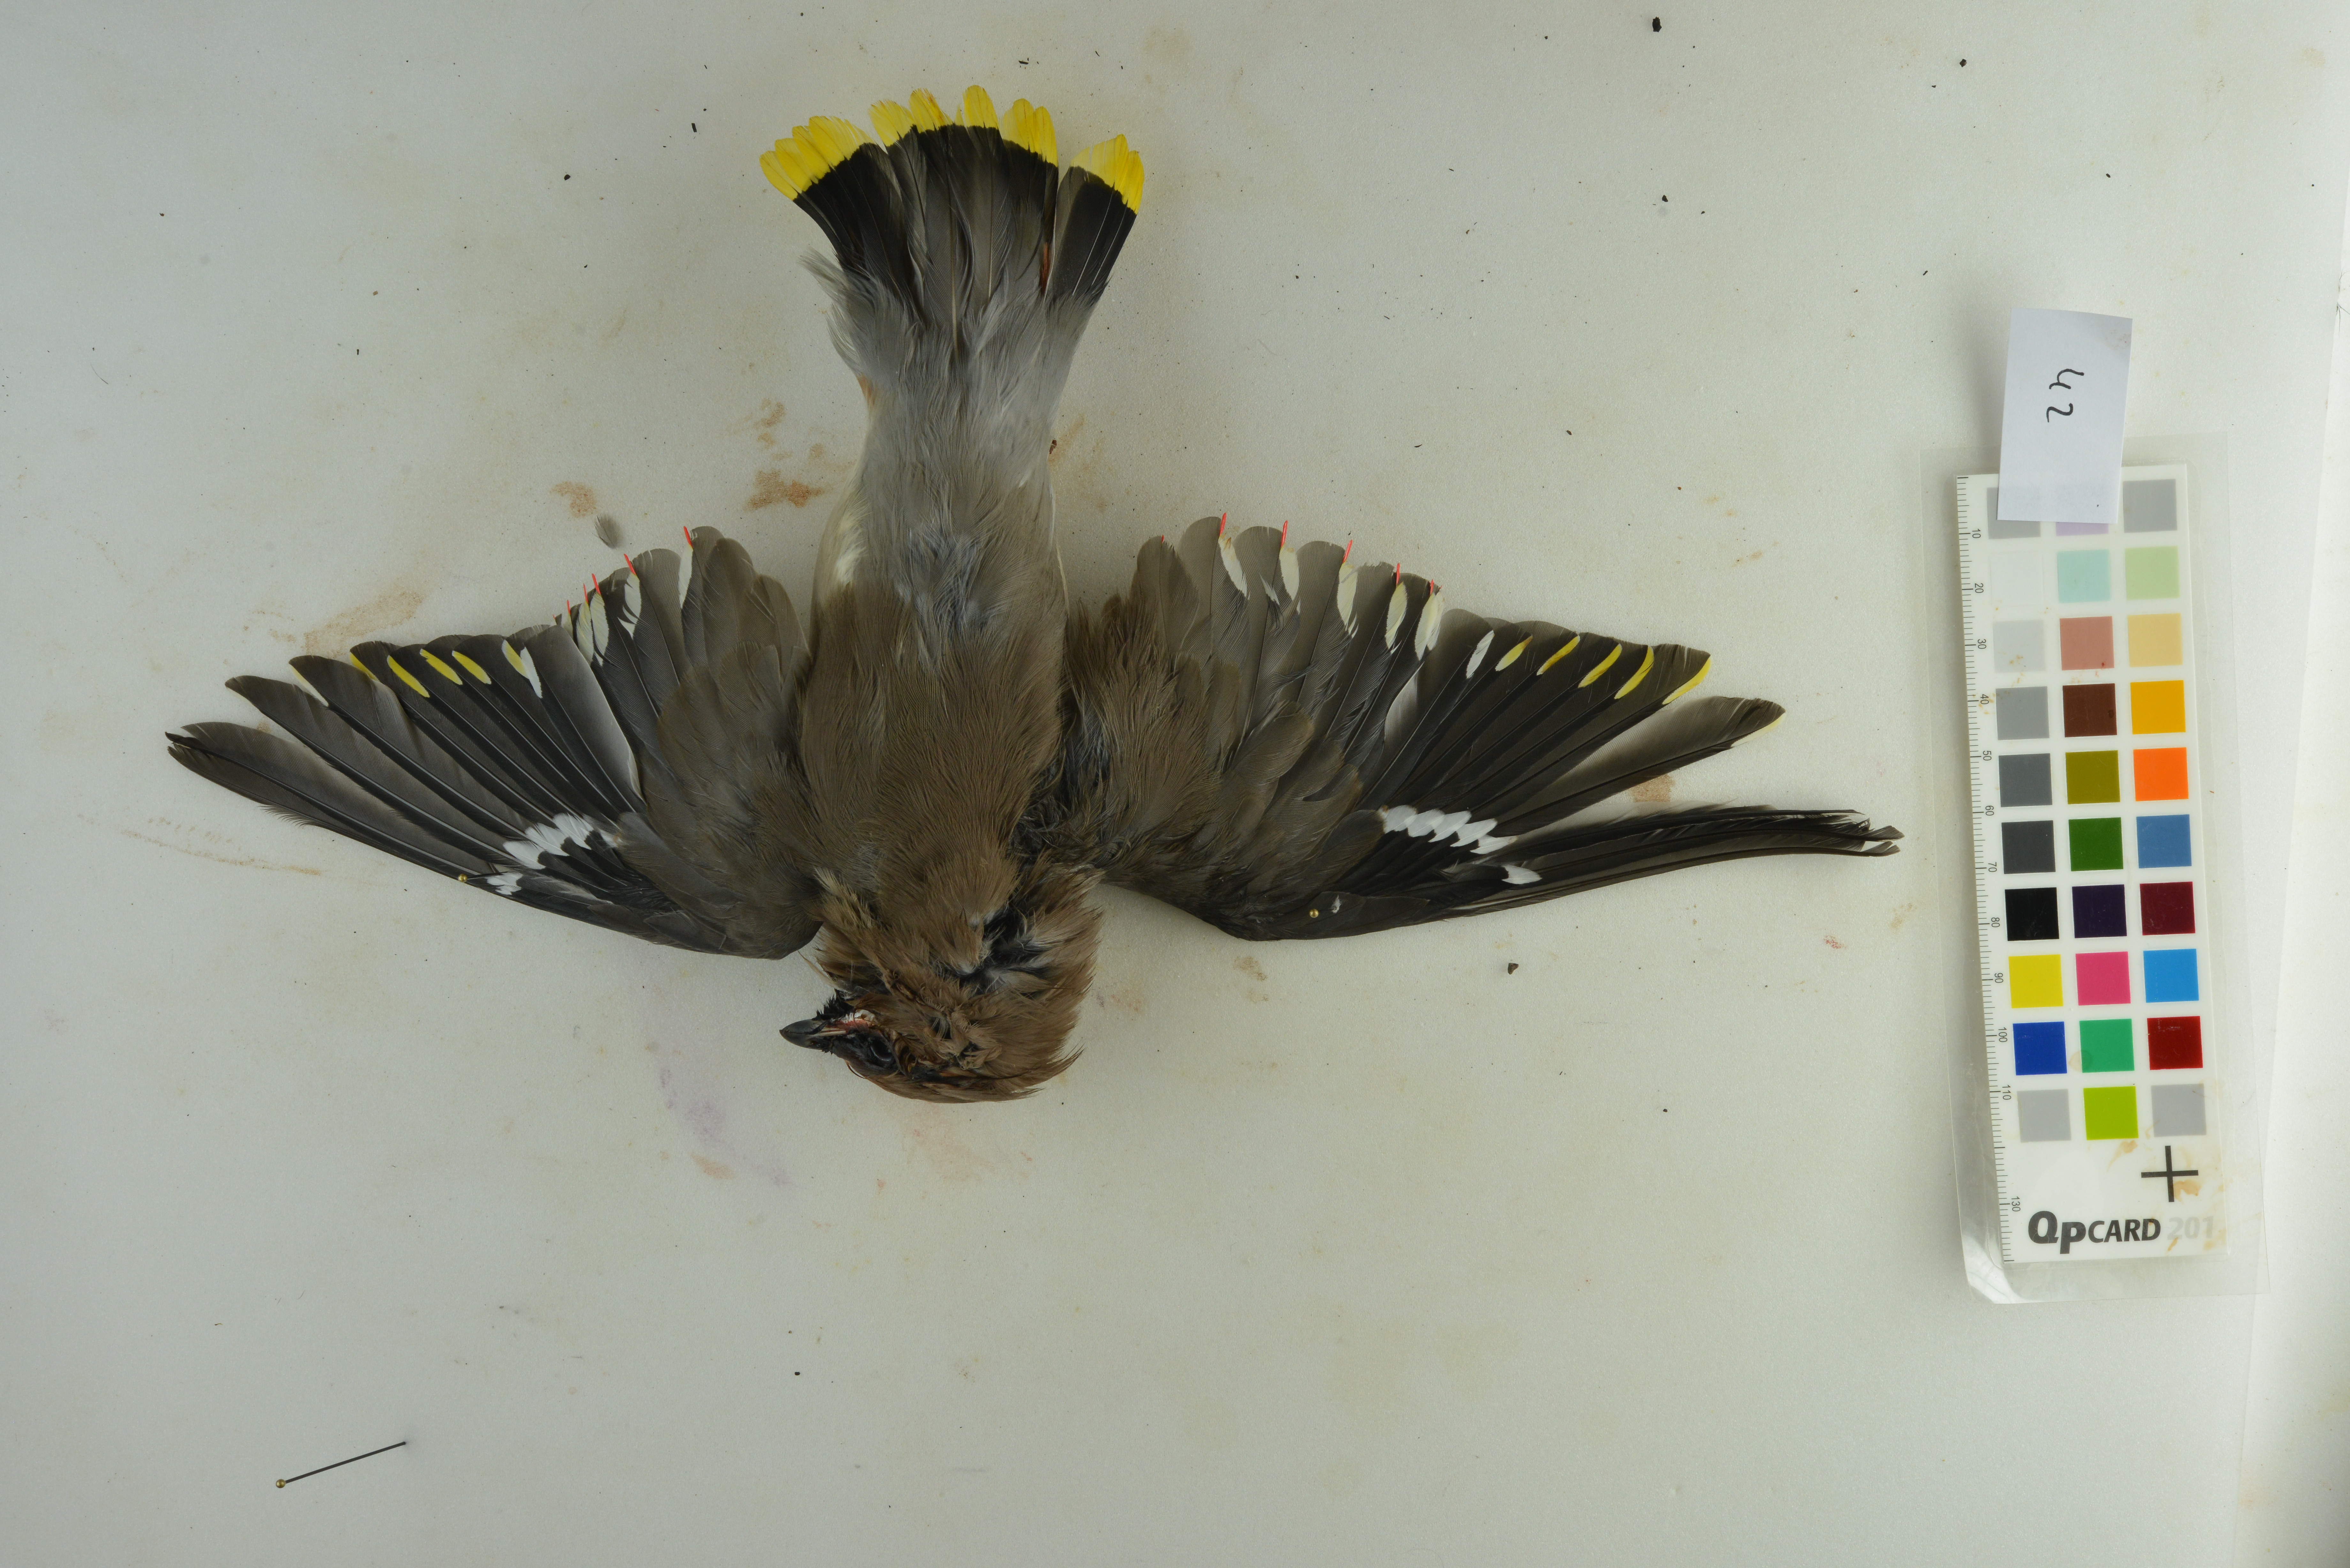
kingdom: Animalia
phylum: Chordata
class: Aves
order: Passeriformes
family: Bombycillidae
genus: Bombycilla
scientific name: Bombycilla garrulus
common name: Bohemian waxwing
